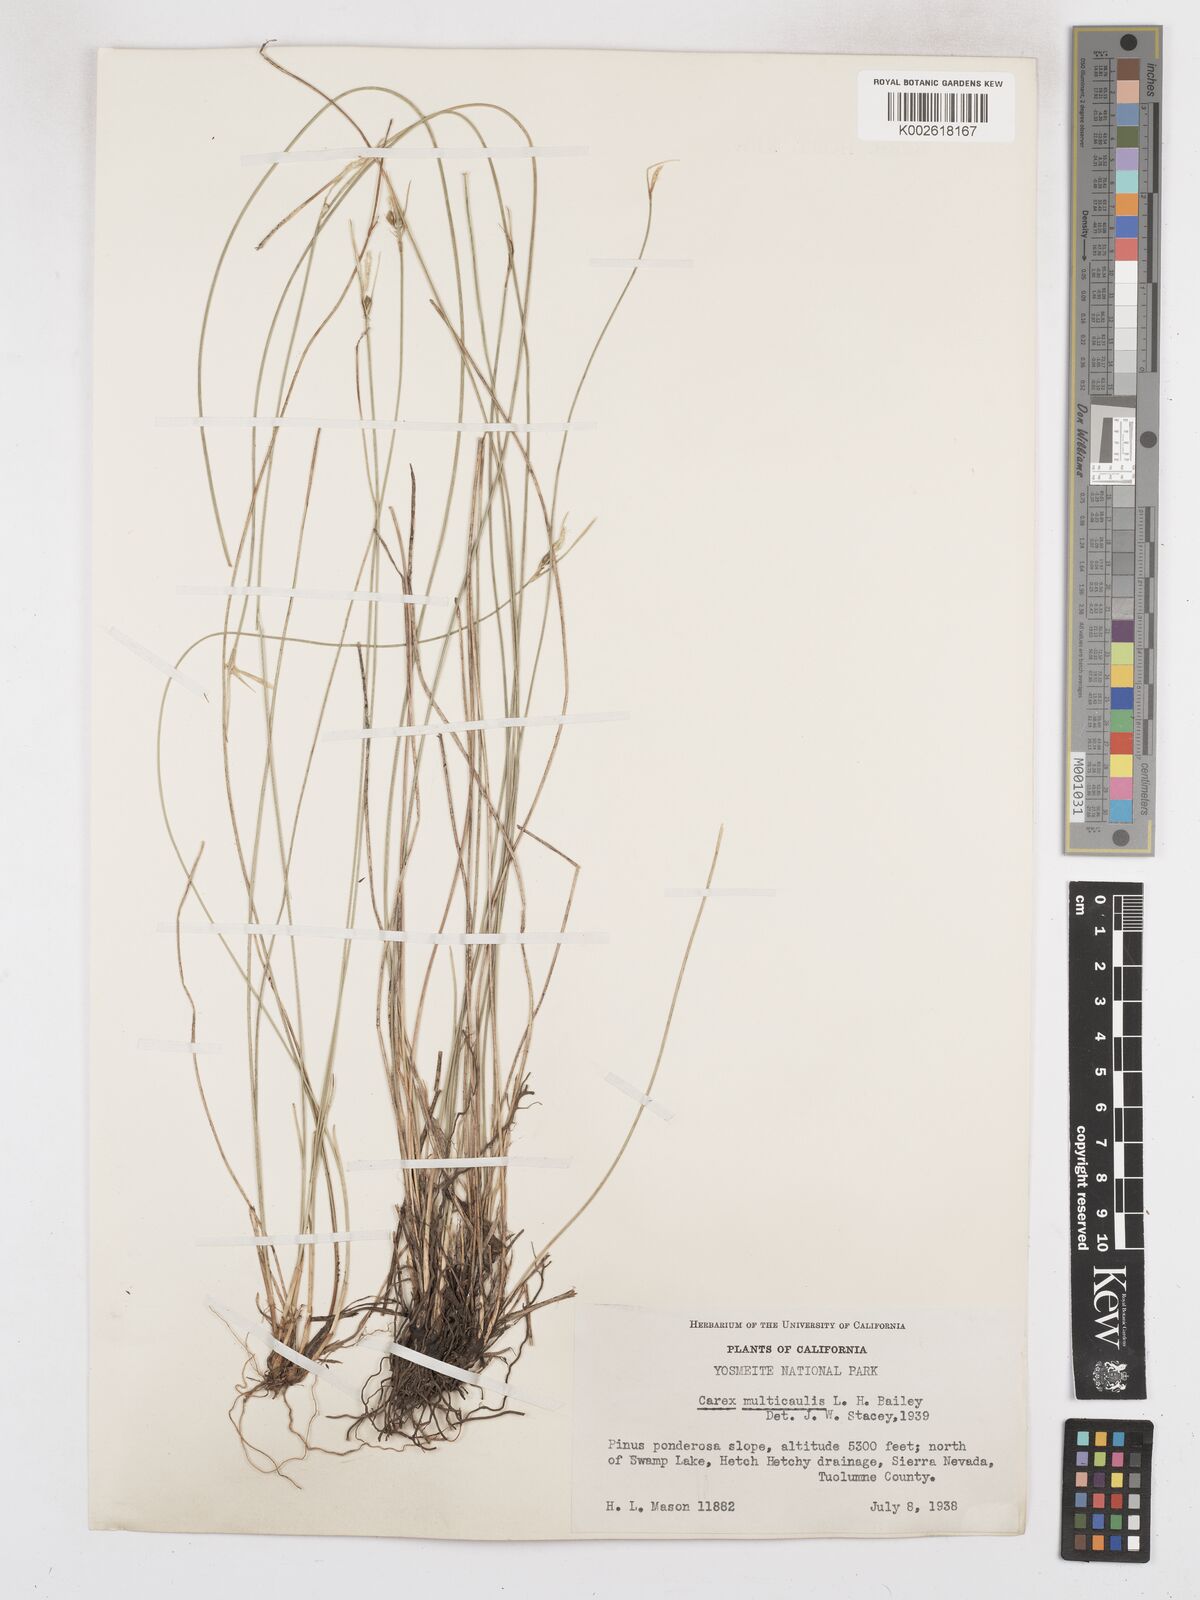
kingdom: Plantae
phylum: Tracheophyta
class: Liliopsida
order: Poales
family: Cyperaceae
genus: Carex
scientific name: Carex multicaulis
